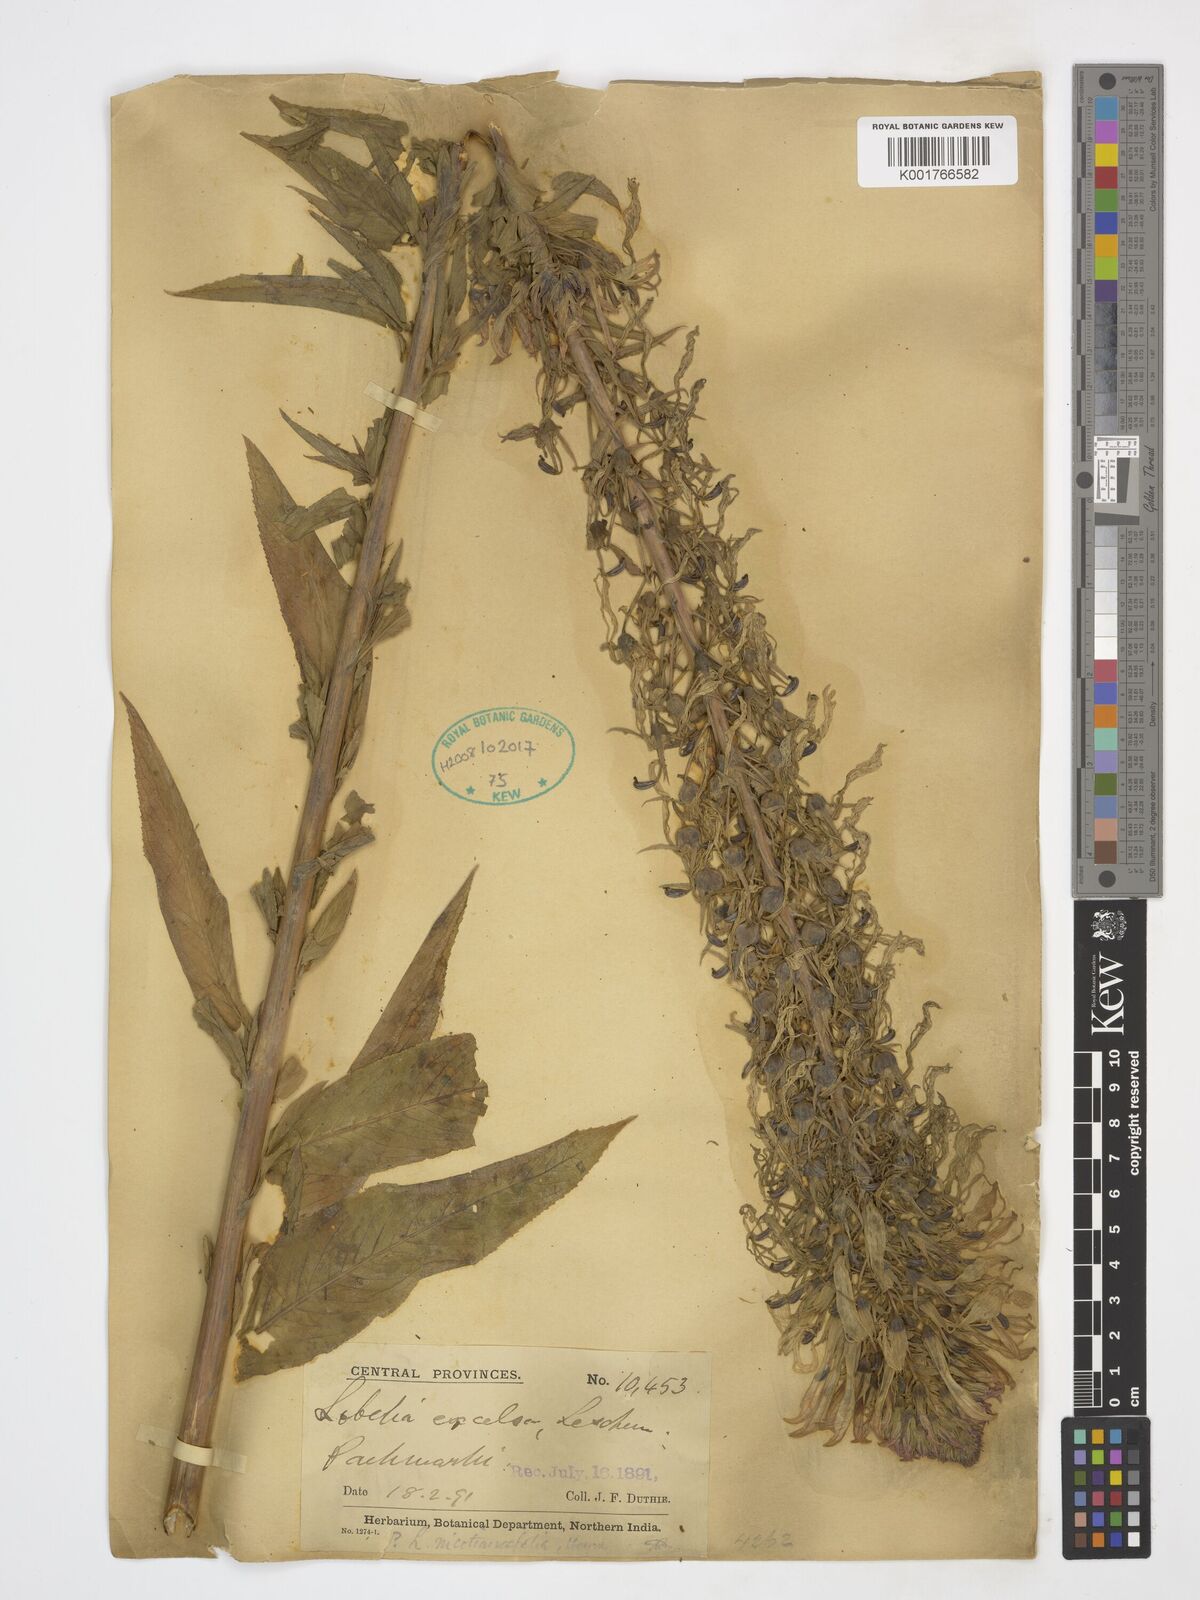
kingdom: Plantae
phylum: Tracheophyta
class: Magnoliopsida
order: Asterales
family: Campanulaceae
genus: Lobelia
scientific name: Lobelia excelsa
